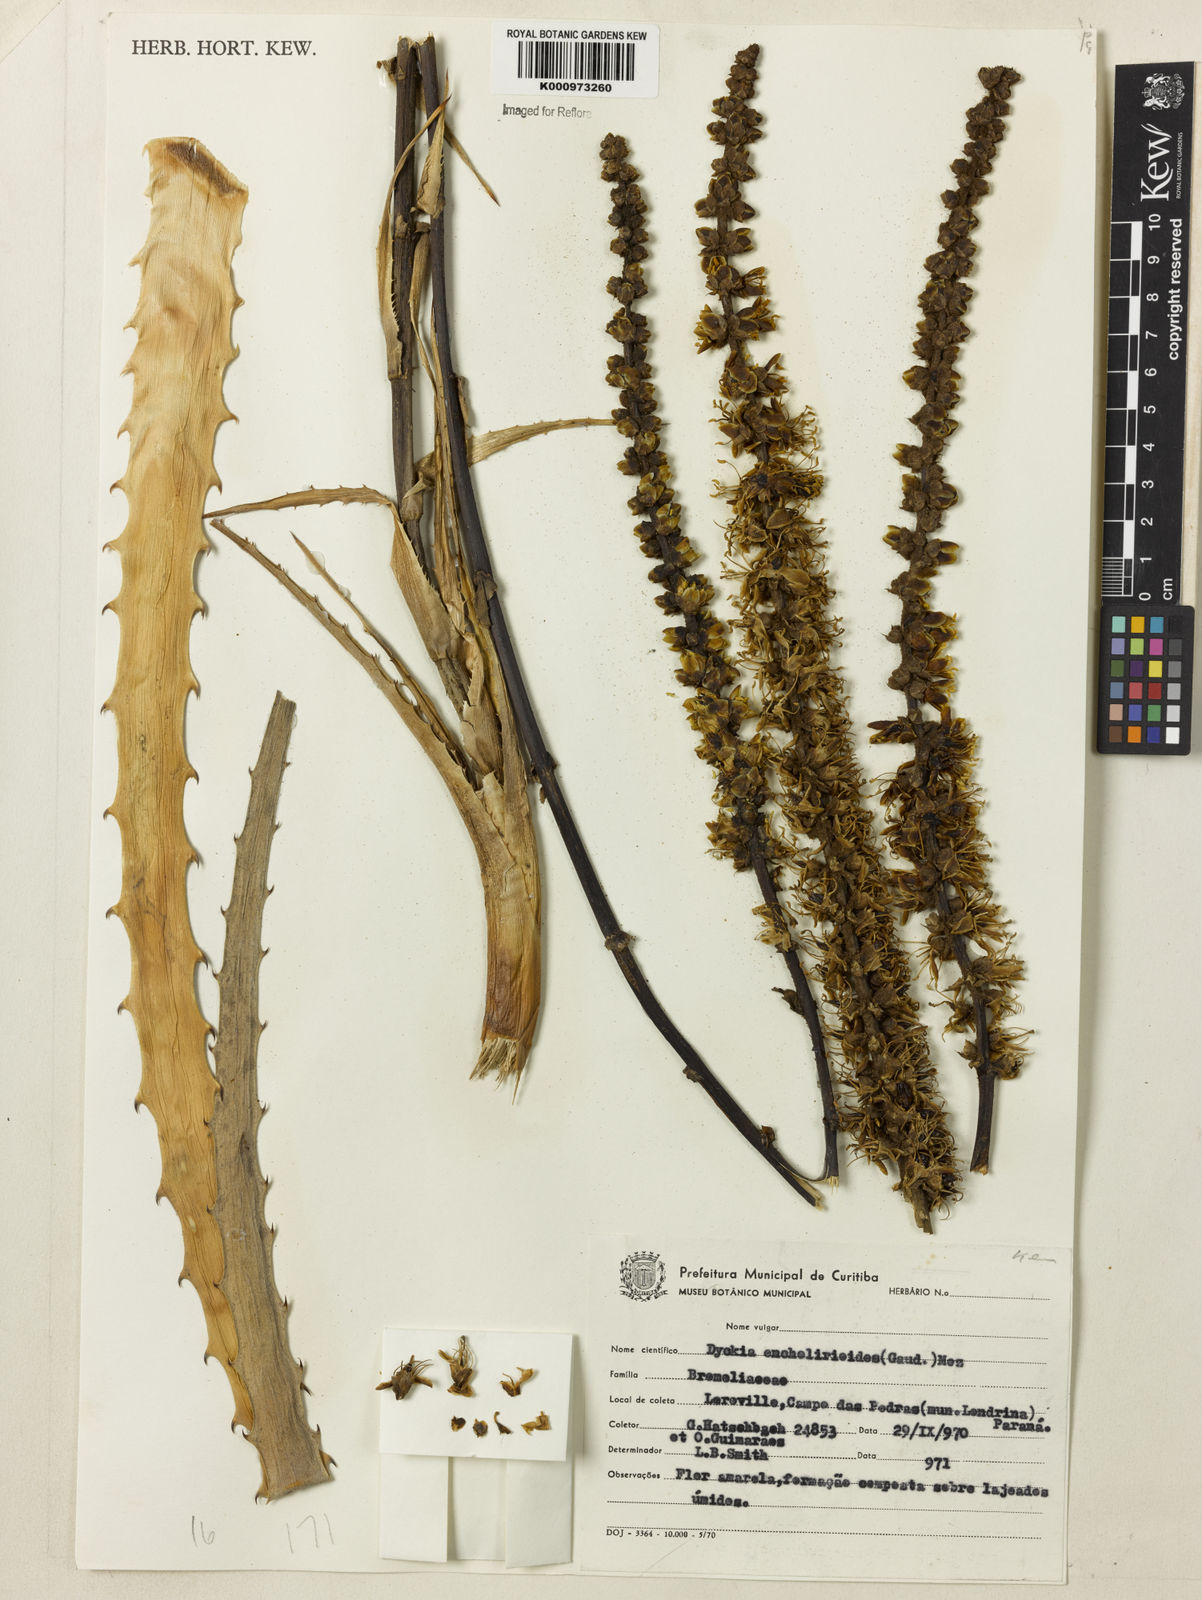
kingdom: Plantae
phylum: Tracheophyta
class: Liliopsida
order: Poales
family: Bromeliaceae
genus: Dyckia
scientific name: Dyckia encholirioides
